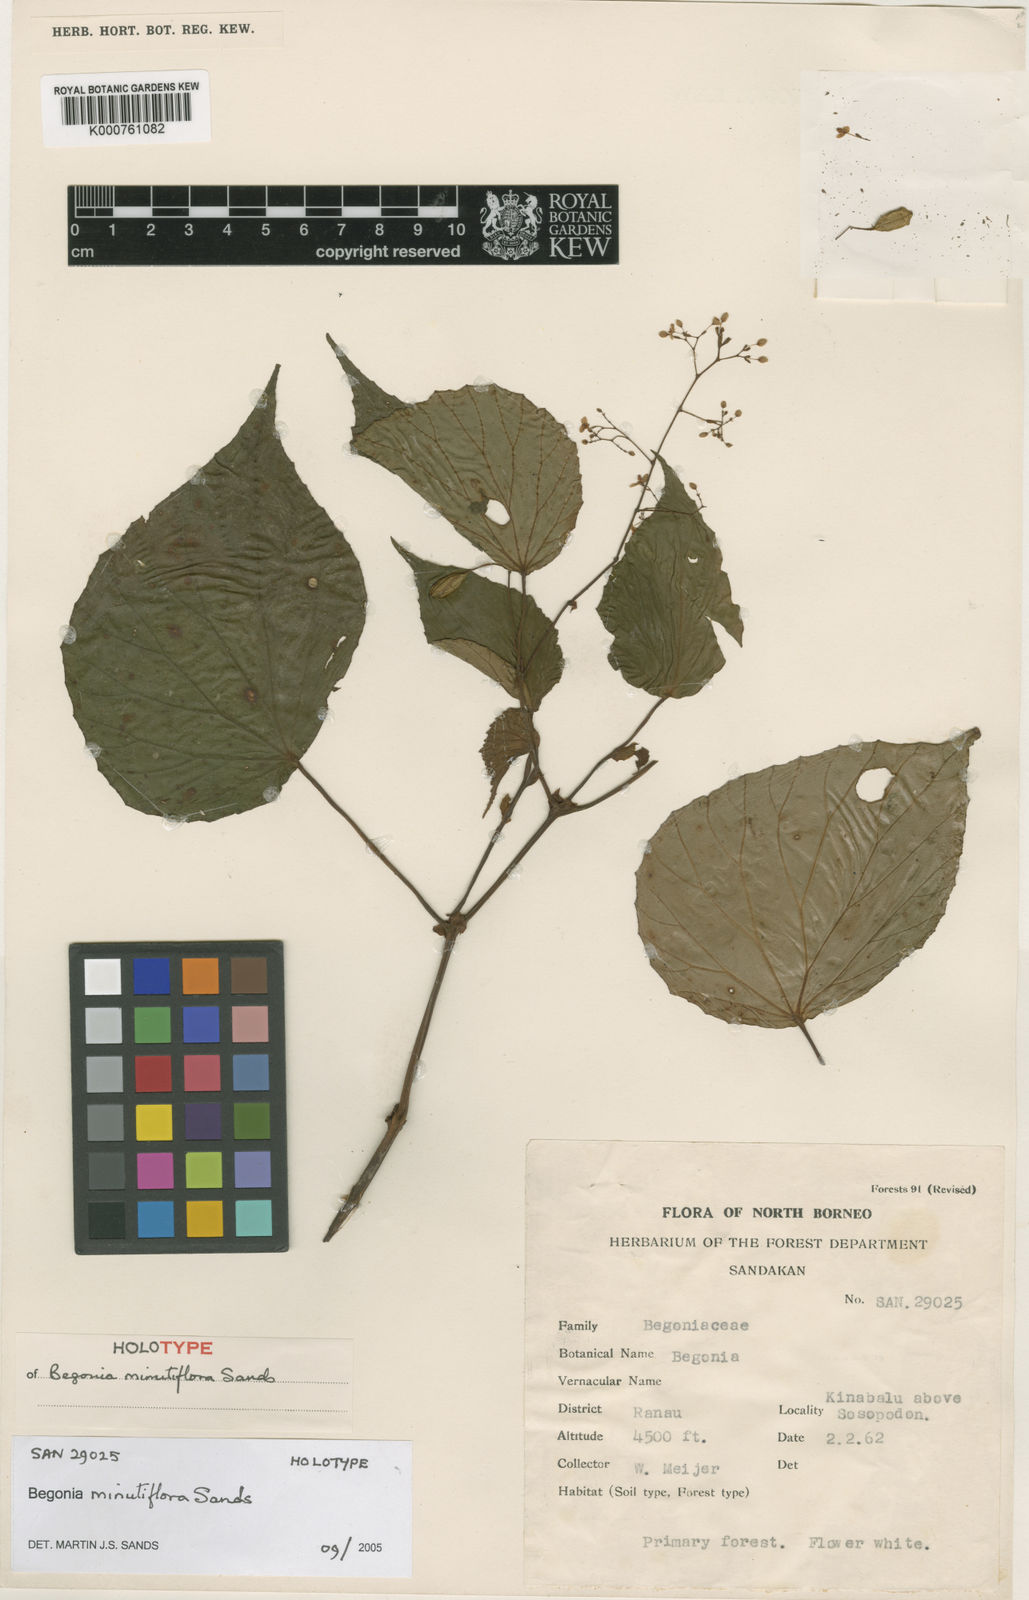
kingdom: Plantae
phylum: Tracheophyta
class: Magnoliopsida
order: Cucurbitales
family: Begoniaceae
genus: Begonia
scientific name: Begonia minutiflora
